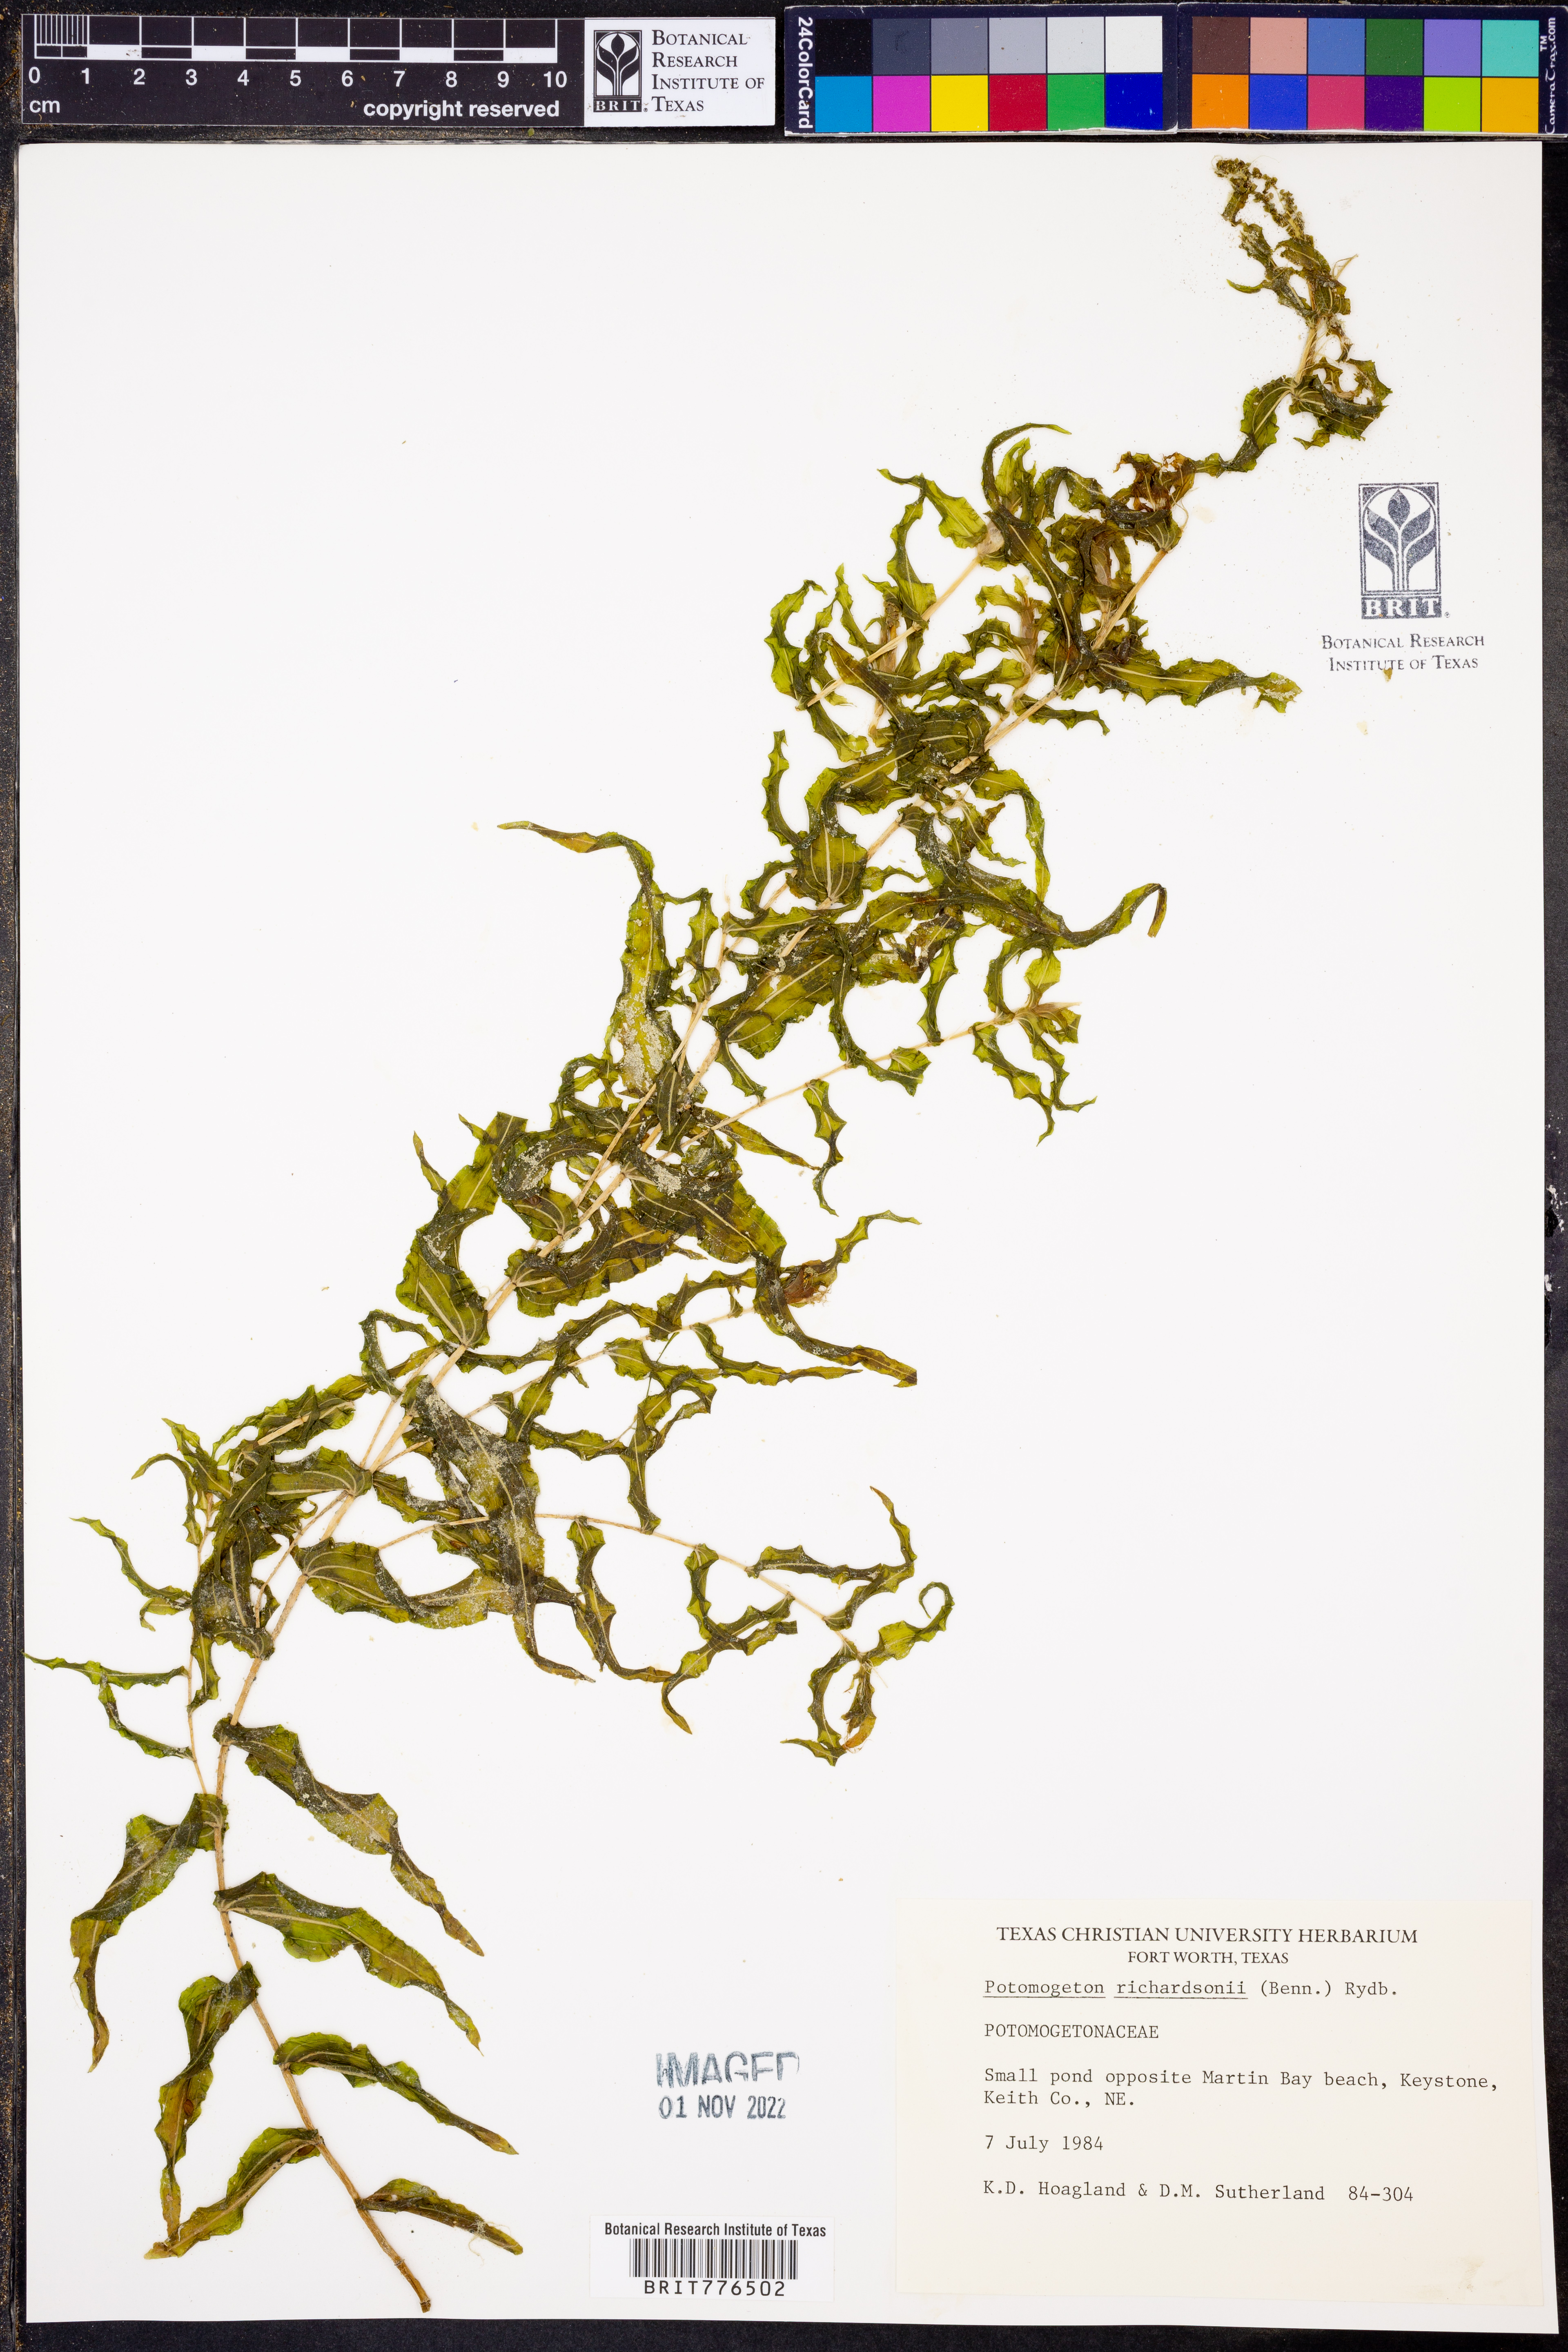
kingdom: Plantae
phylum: Tracheophyta
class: Liliopsida
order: Alismatales
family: Potamogetonaceae
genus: Potamogeton
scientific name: Potamogeton richardsonii
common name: Richardson's pondweed
